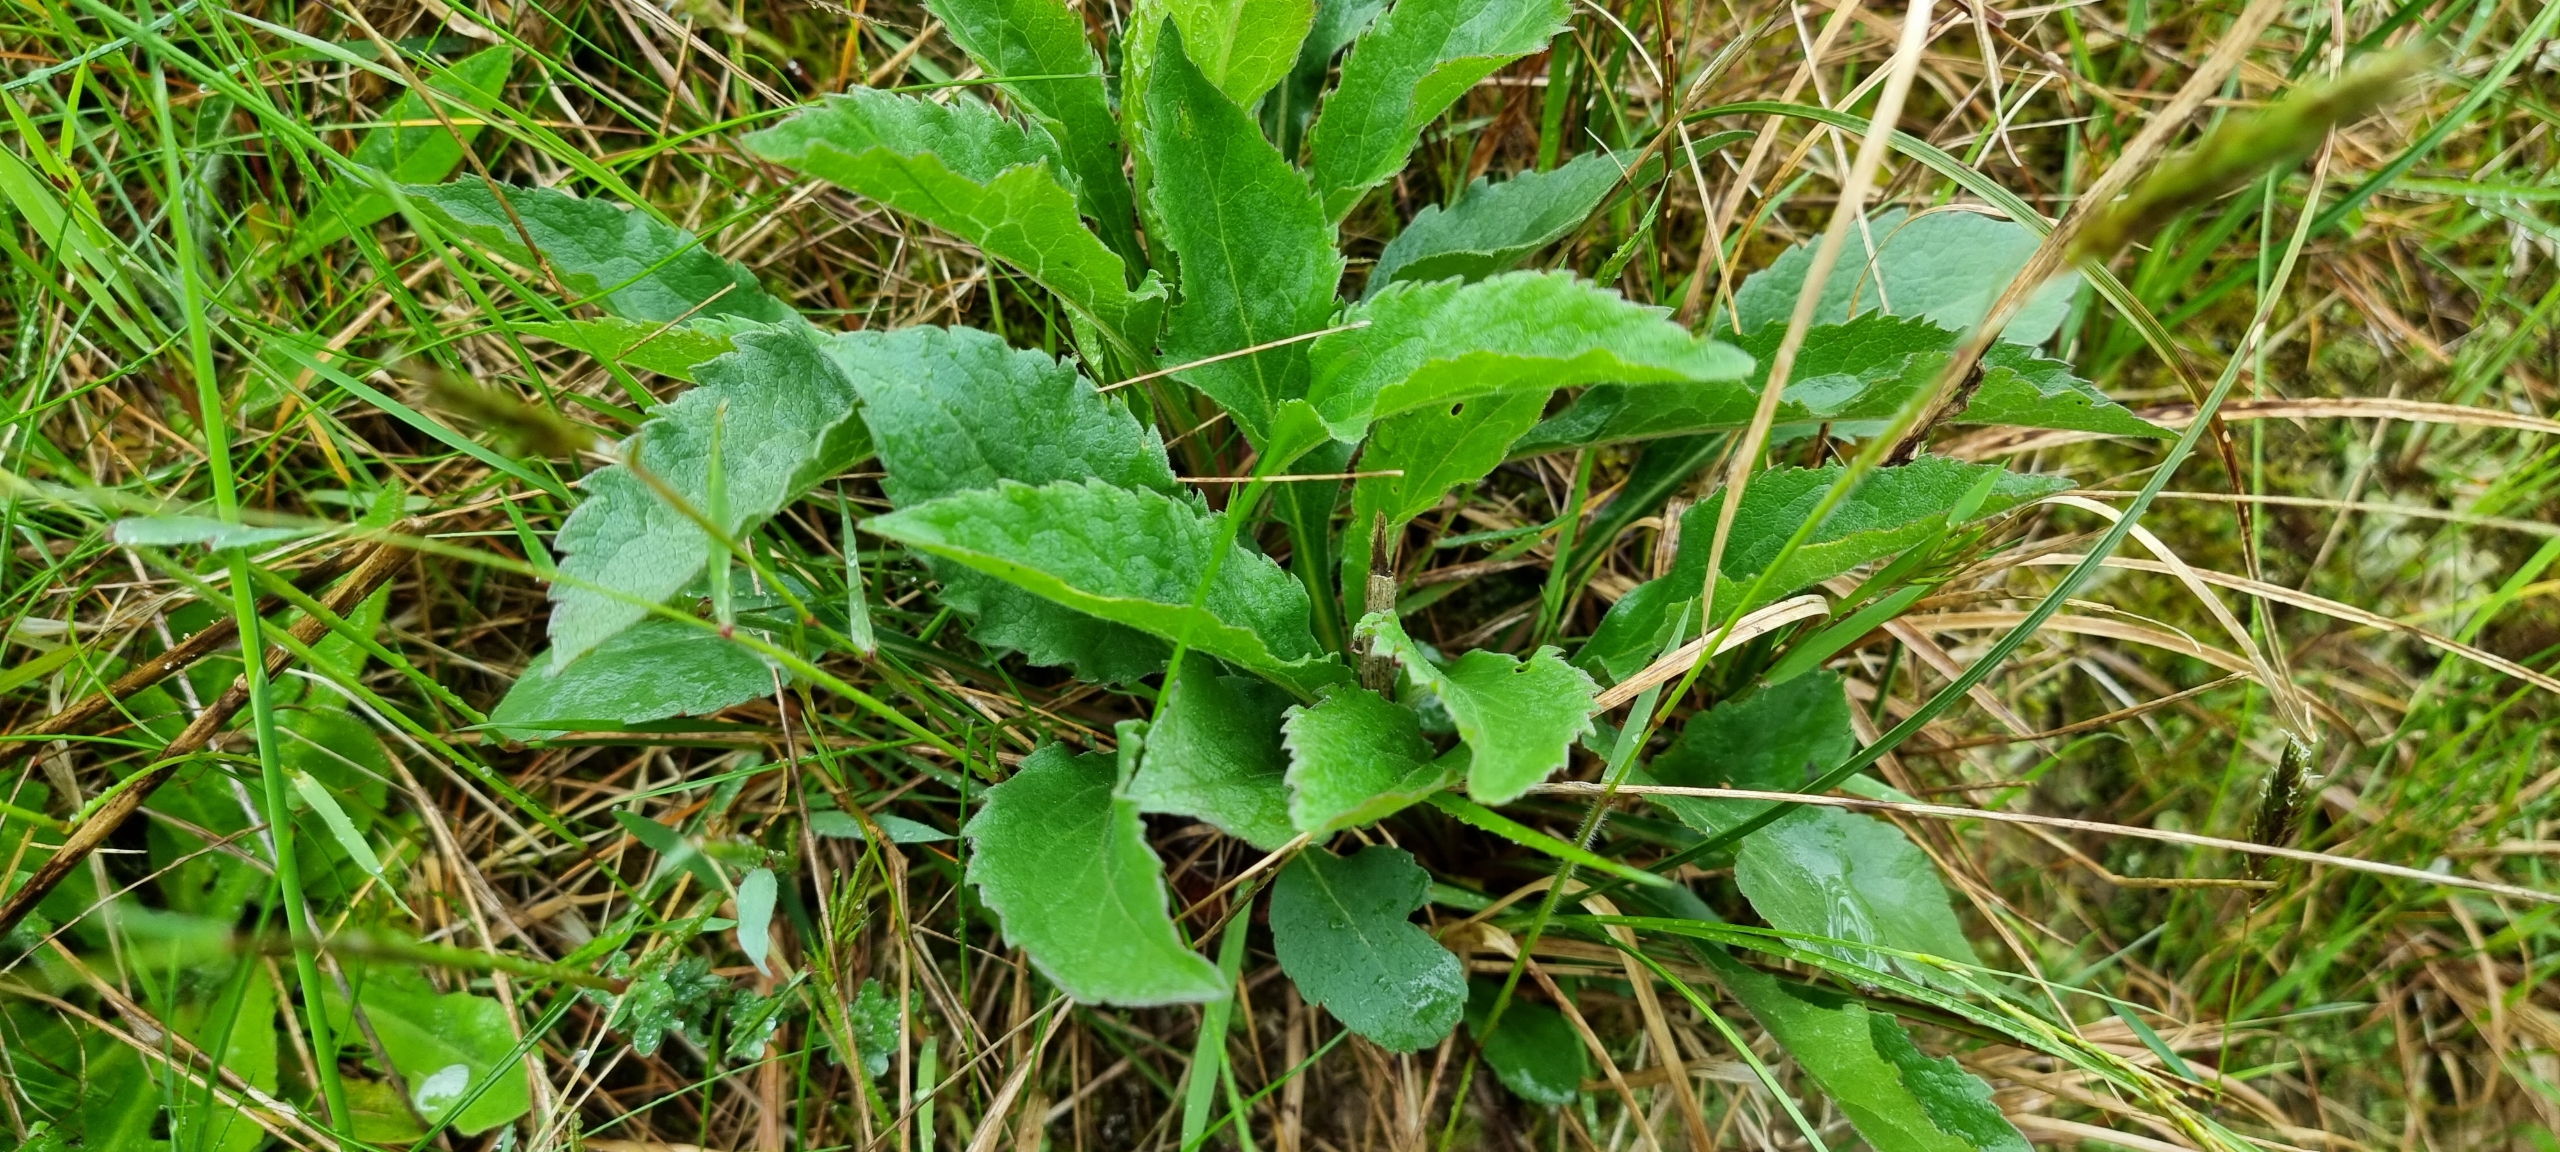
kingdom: Plantae
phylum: Tracheophyta
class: Magnoliopsida
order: Asterales
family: Asteraceae
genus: Solidago
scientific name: Solidago virgaurea
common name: Almindelig gyldenris
